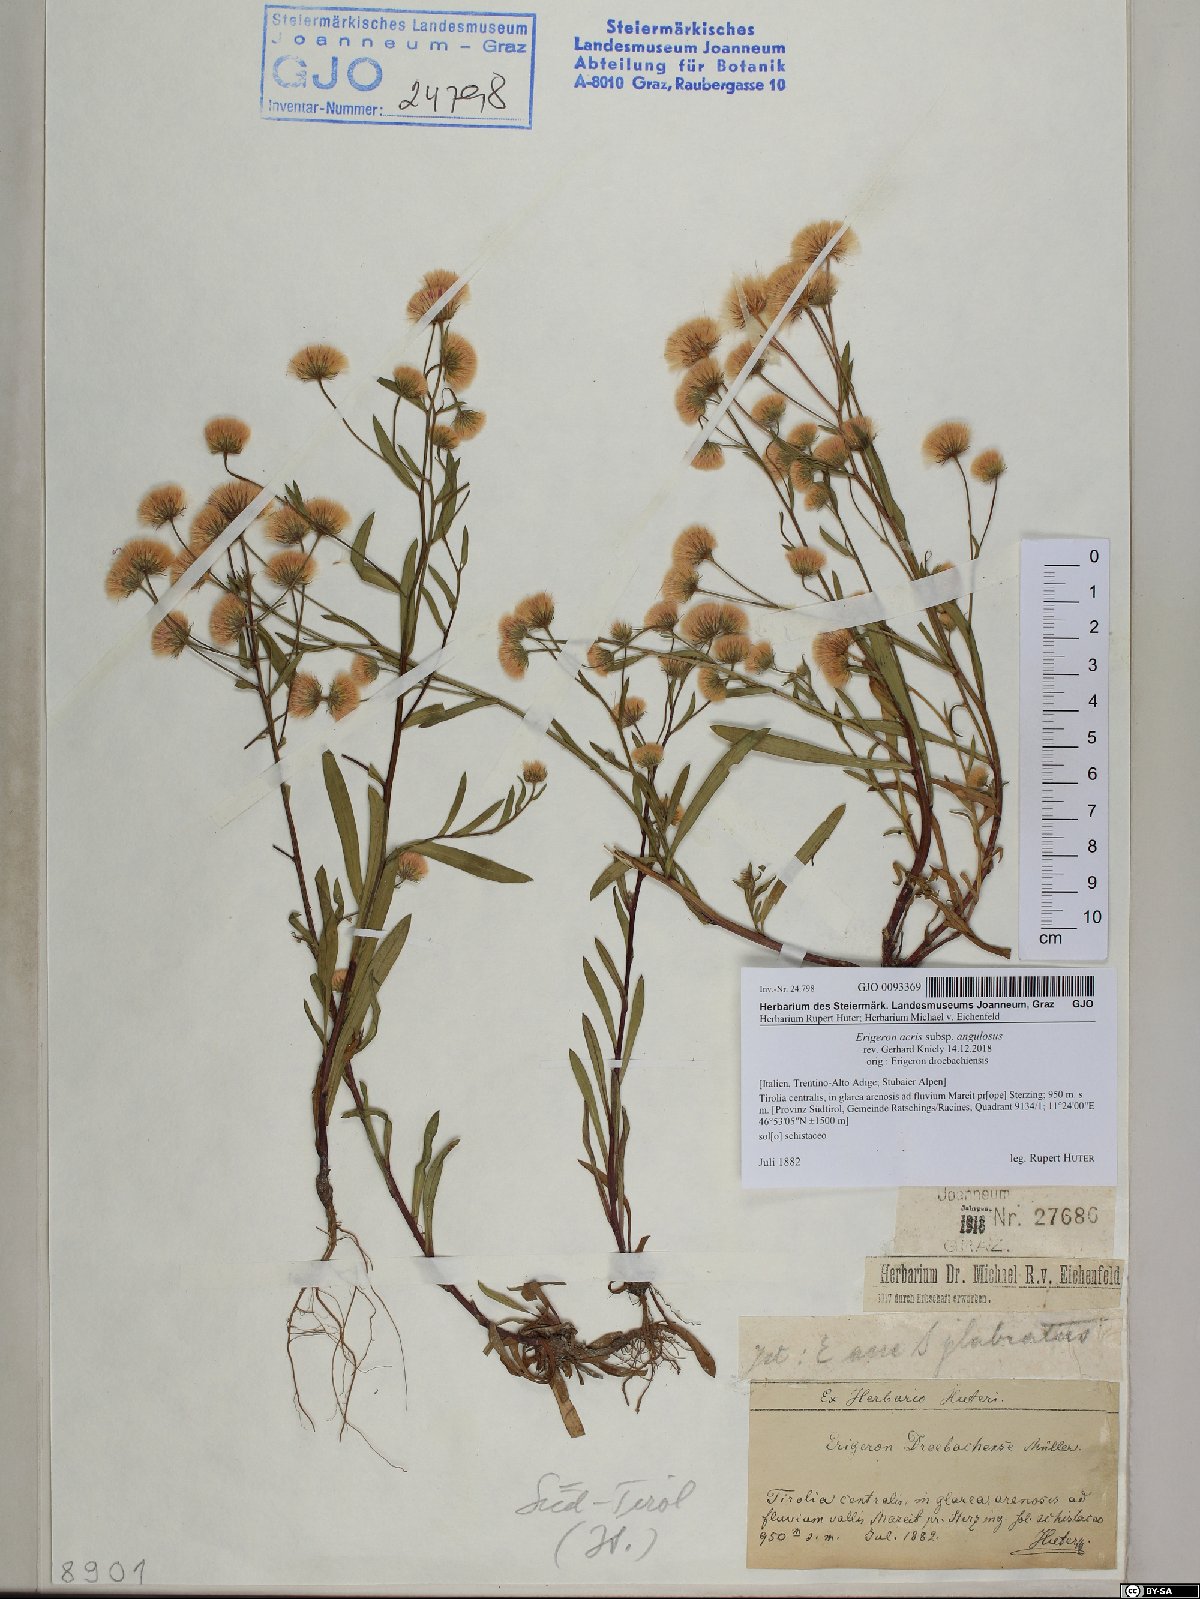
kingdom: Plantae
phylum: Tracheophyta
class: Magnoliopsida
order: Asterales
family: Asteraceae
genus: Erigeron
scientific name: Erigeron angulosus
